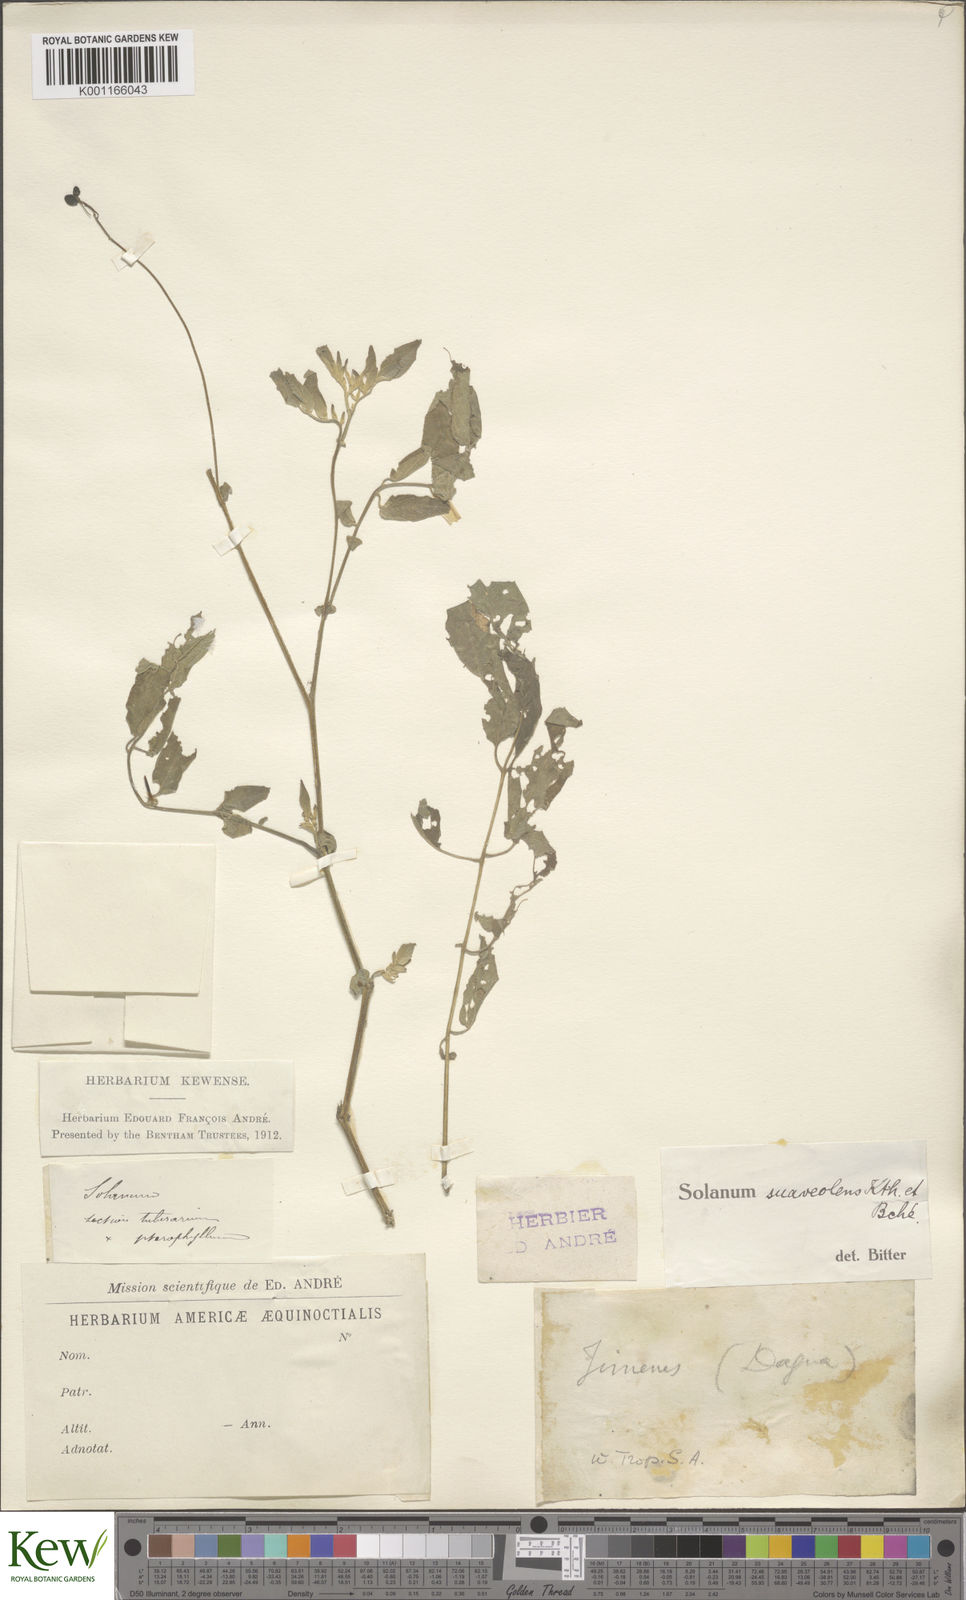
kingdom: Plantae
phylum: Tracheophyta
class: Magnoliopsida
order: Solanales
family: Solanaceae
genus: Solanum
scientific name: Solanum suaveolens
